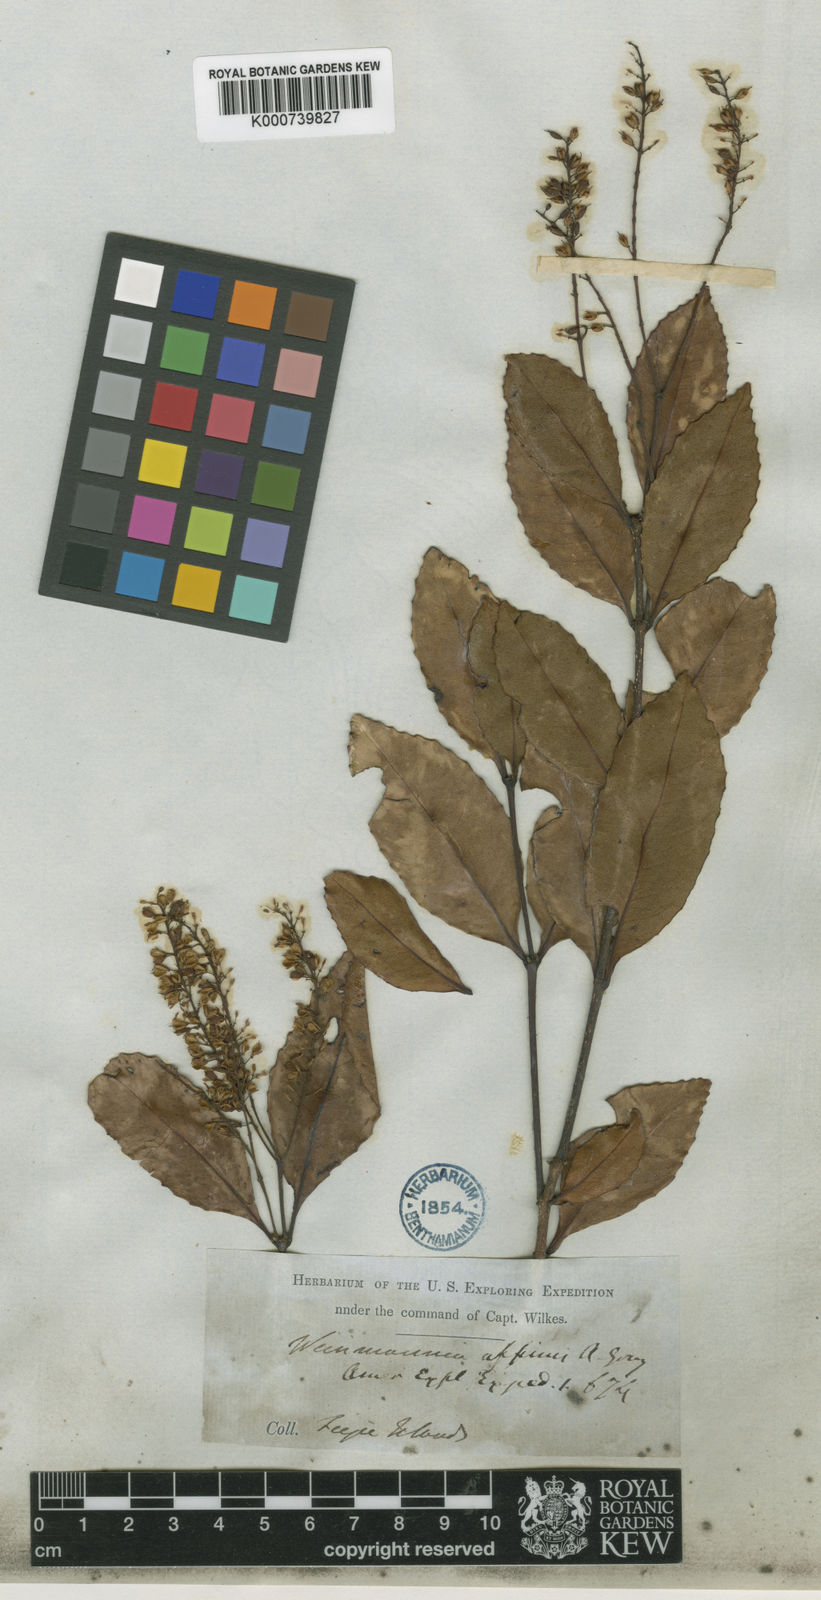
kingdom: Plantae
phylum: Tracheophyta
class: Magnoliopsida
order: Oxalidales
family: Cunoniaceae
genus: Pterophylla
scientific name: Pterophylla affinis
